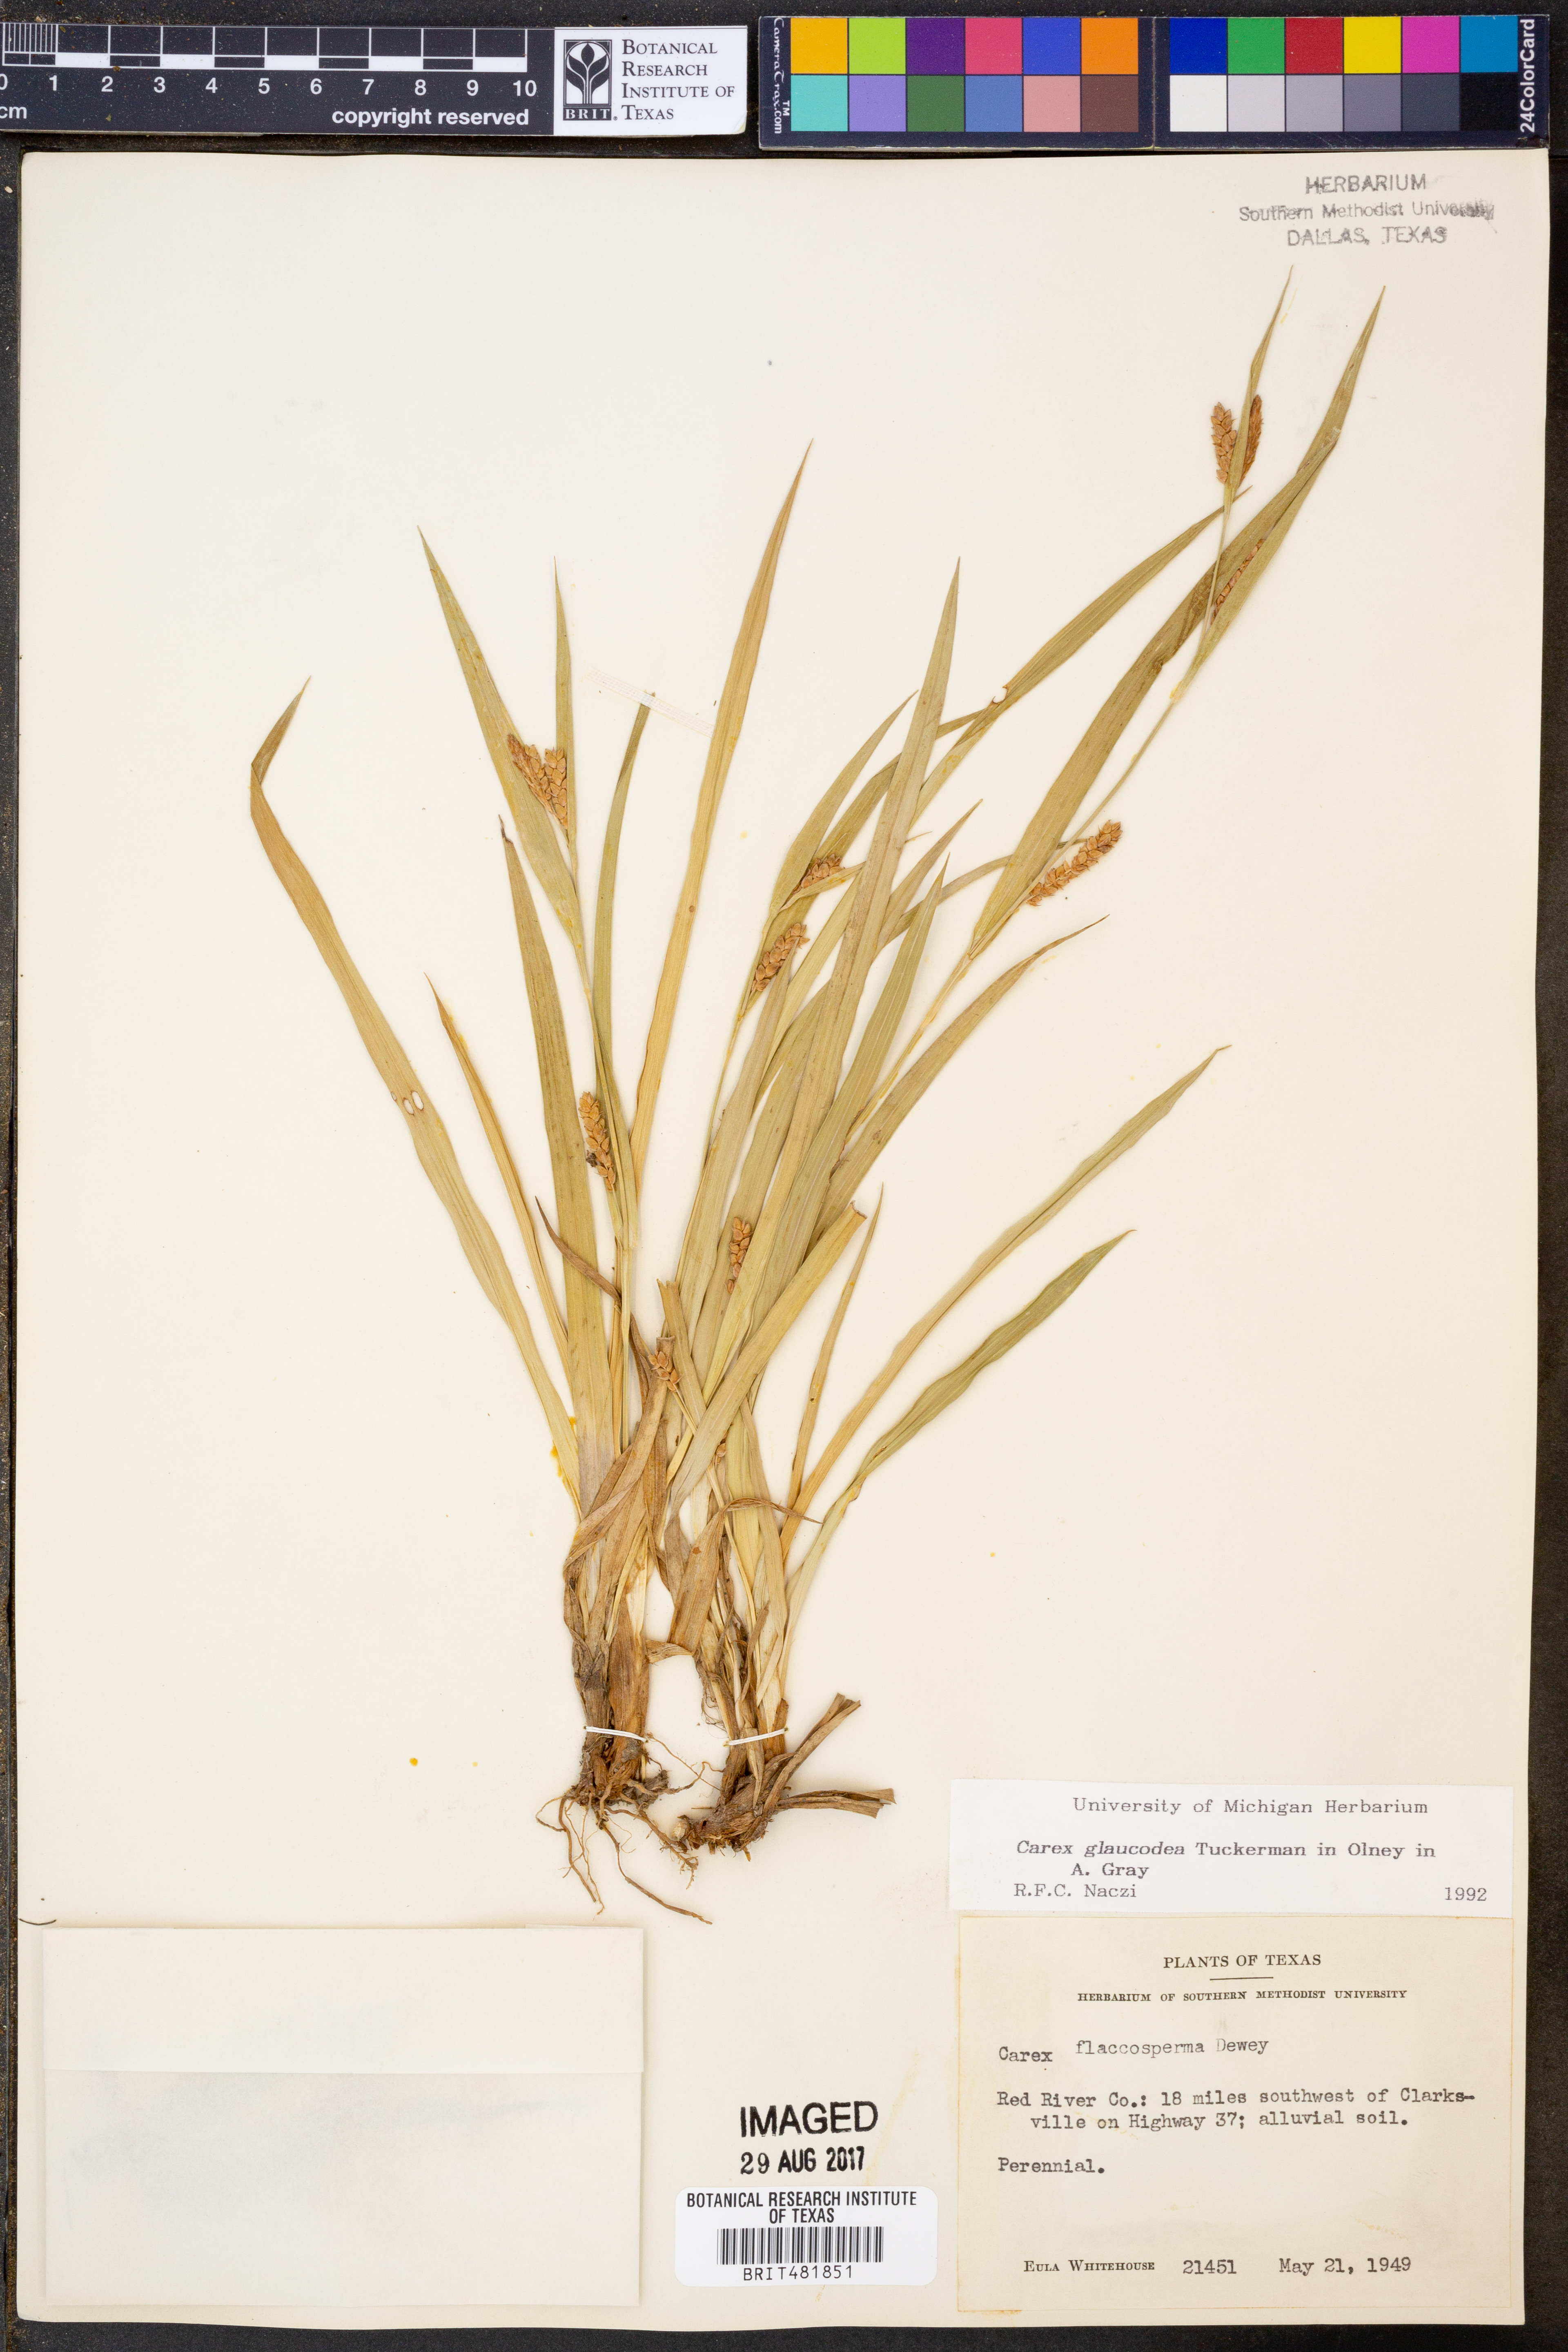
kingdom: Plantae
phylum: Tracheophyta
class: Liliopsida
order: Poales
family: Cyperaceae
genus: Carex
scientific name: Carex glaucodea
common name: Blue sedge
